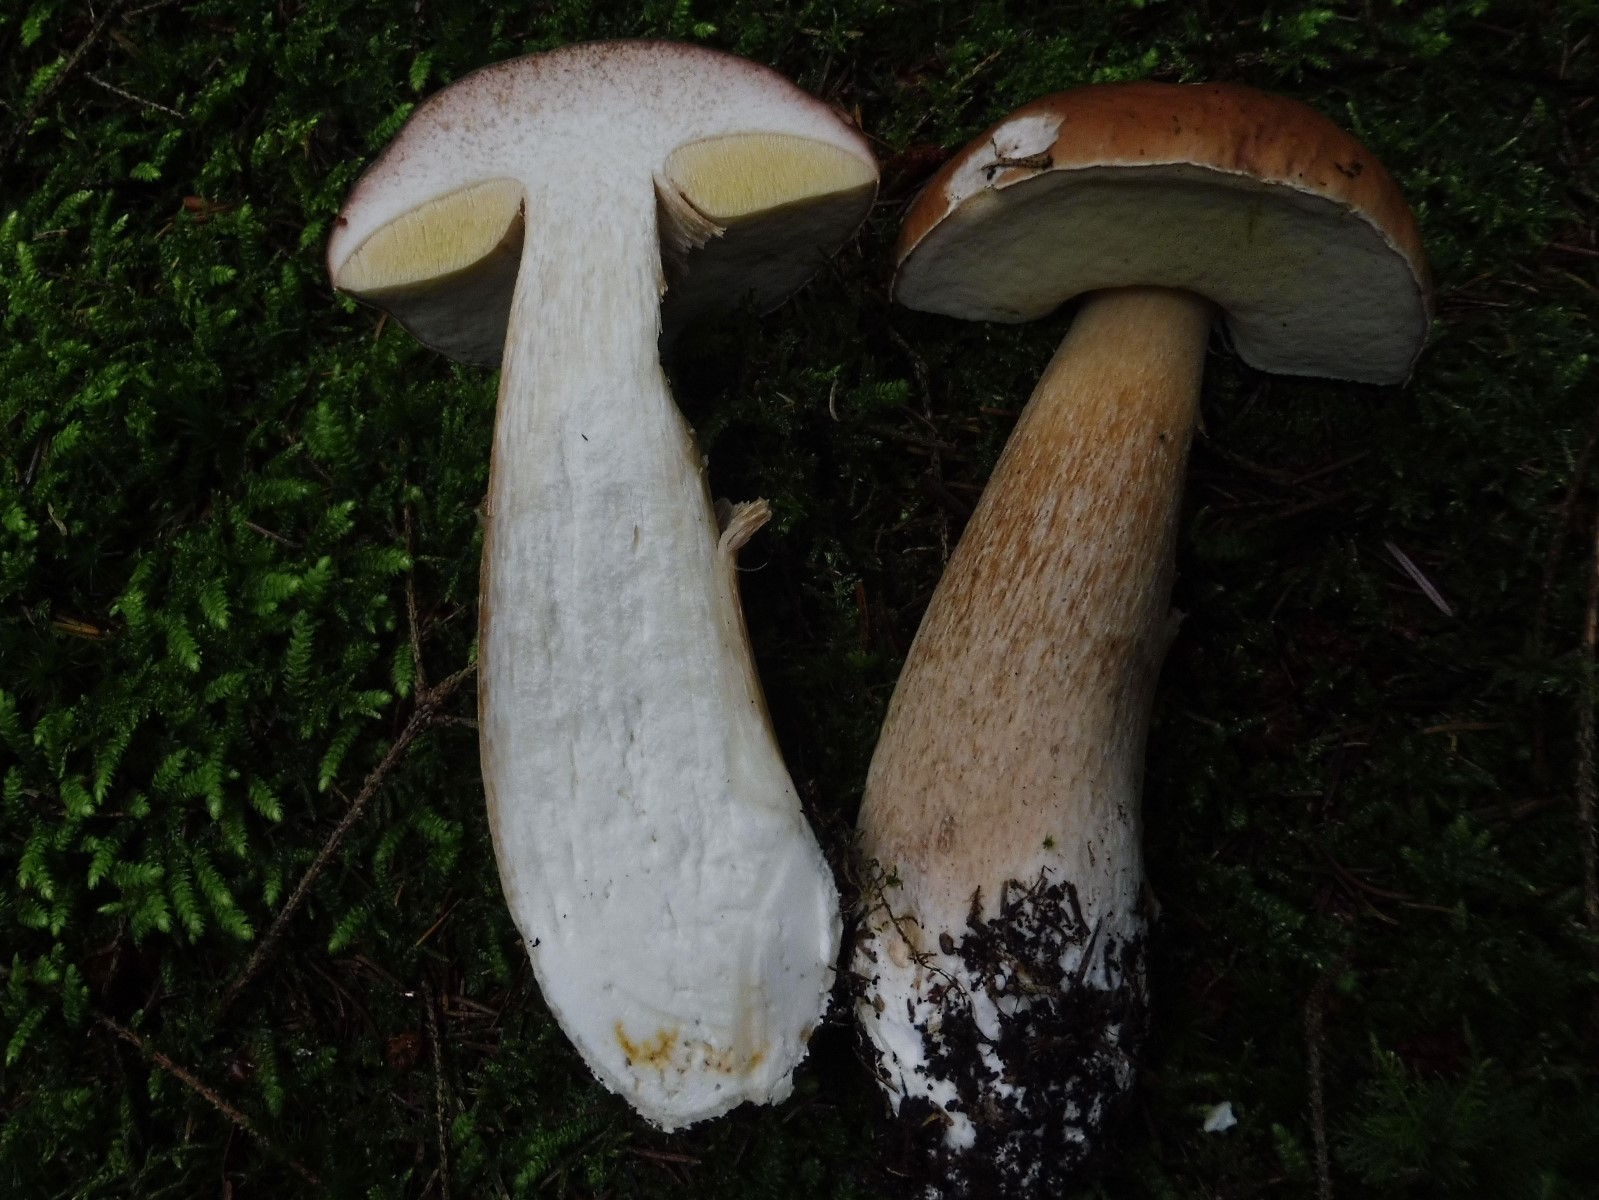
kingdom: Fungi
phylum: Basidiomycota
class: Agaricomycetes
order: Boletales
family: Boletaceae
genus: Boletus
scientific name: Boletus edulis
